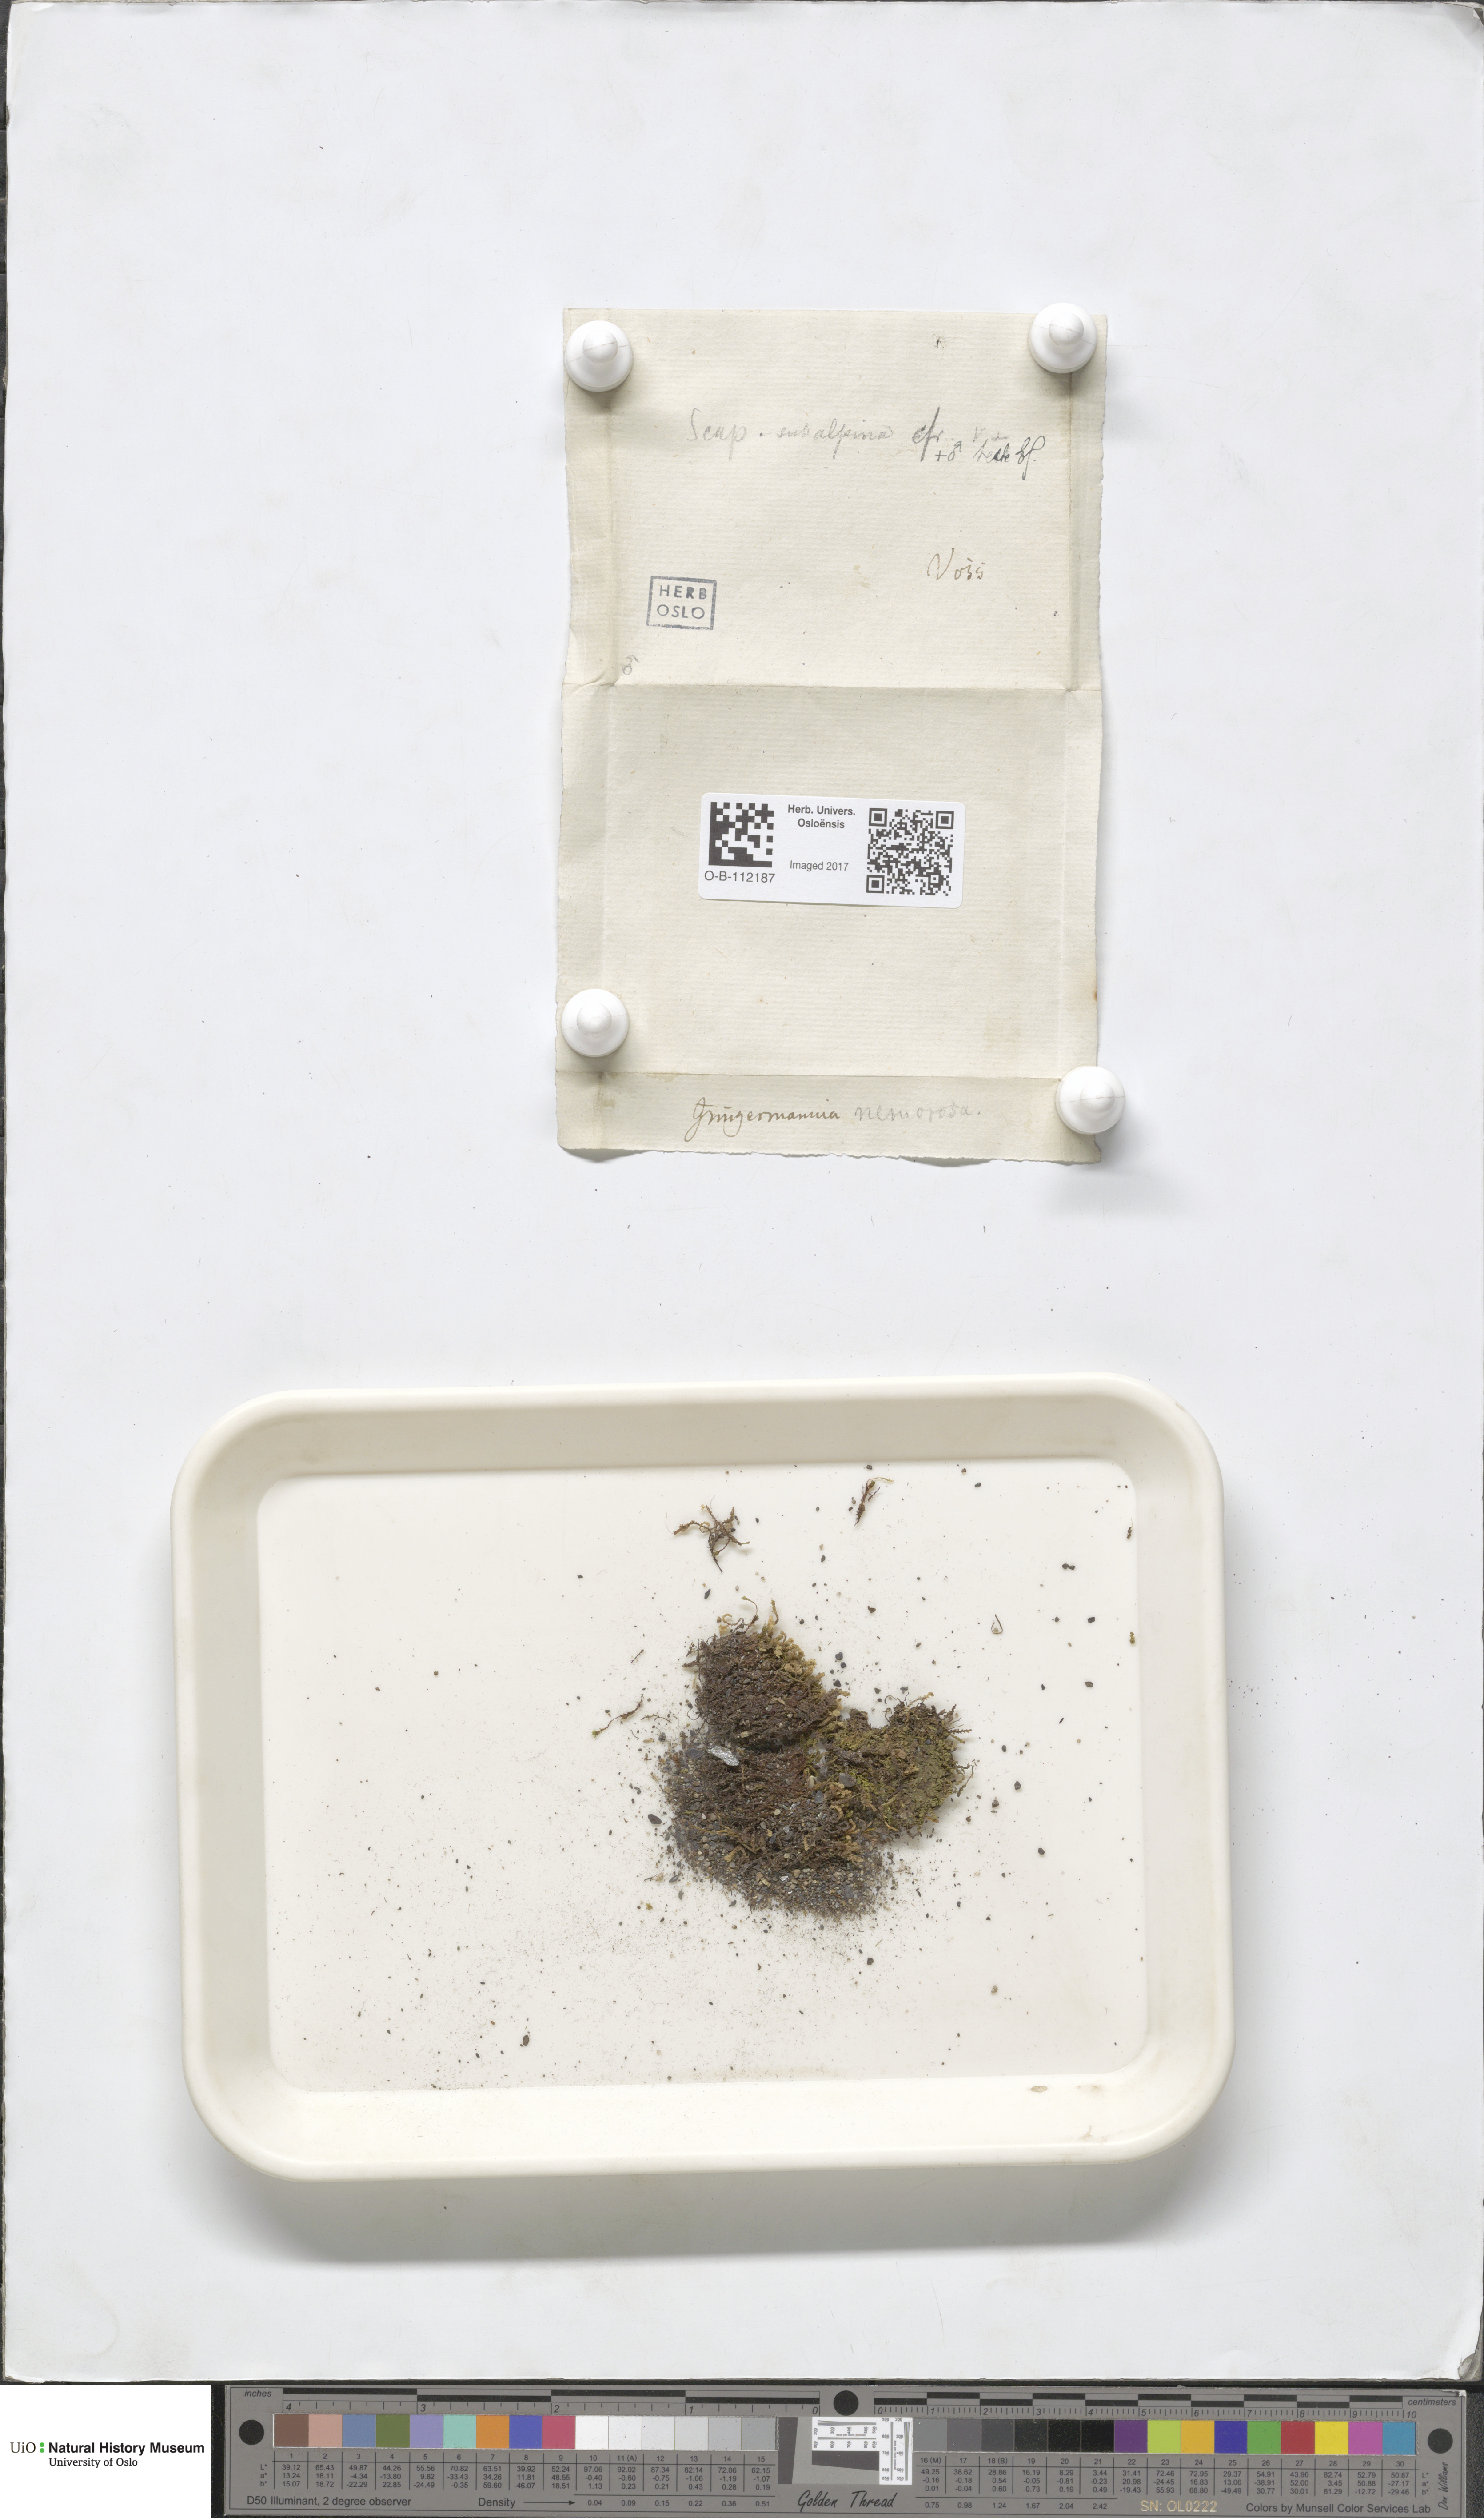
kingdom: Plantae
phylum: Marchantiophyta
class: Jungermanniopsida
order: Jungermanniales
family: Scapaniaceae
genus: Scapania
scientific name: Scapania subalpina
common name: Subalpine earwort
